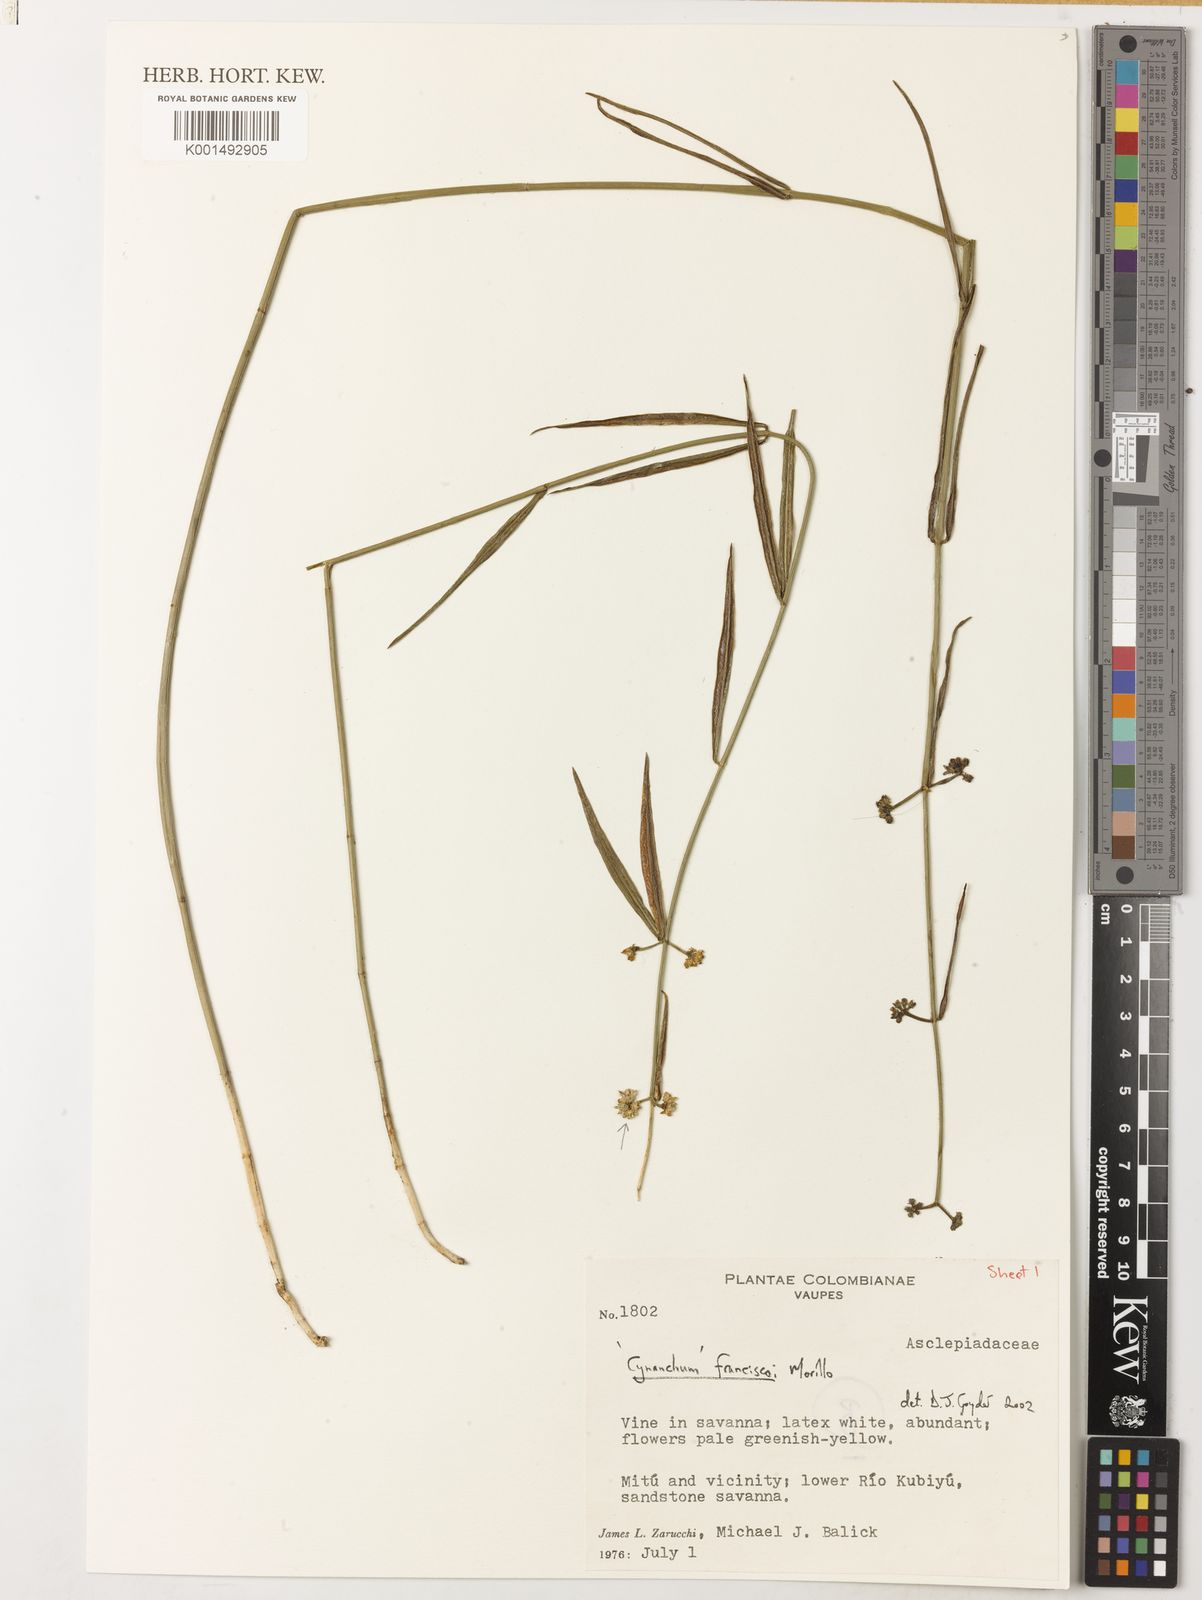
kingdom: Plantae
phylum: Tracheophyta
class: Magnoliopsida
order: Gentianales
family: Apocynaceae
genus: Ditassa
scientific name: Ditassa franciscoi
